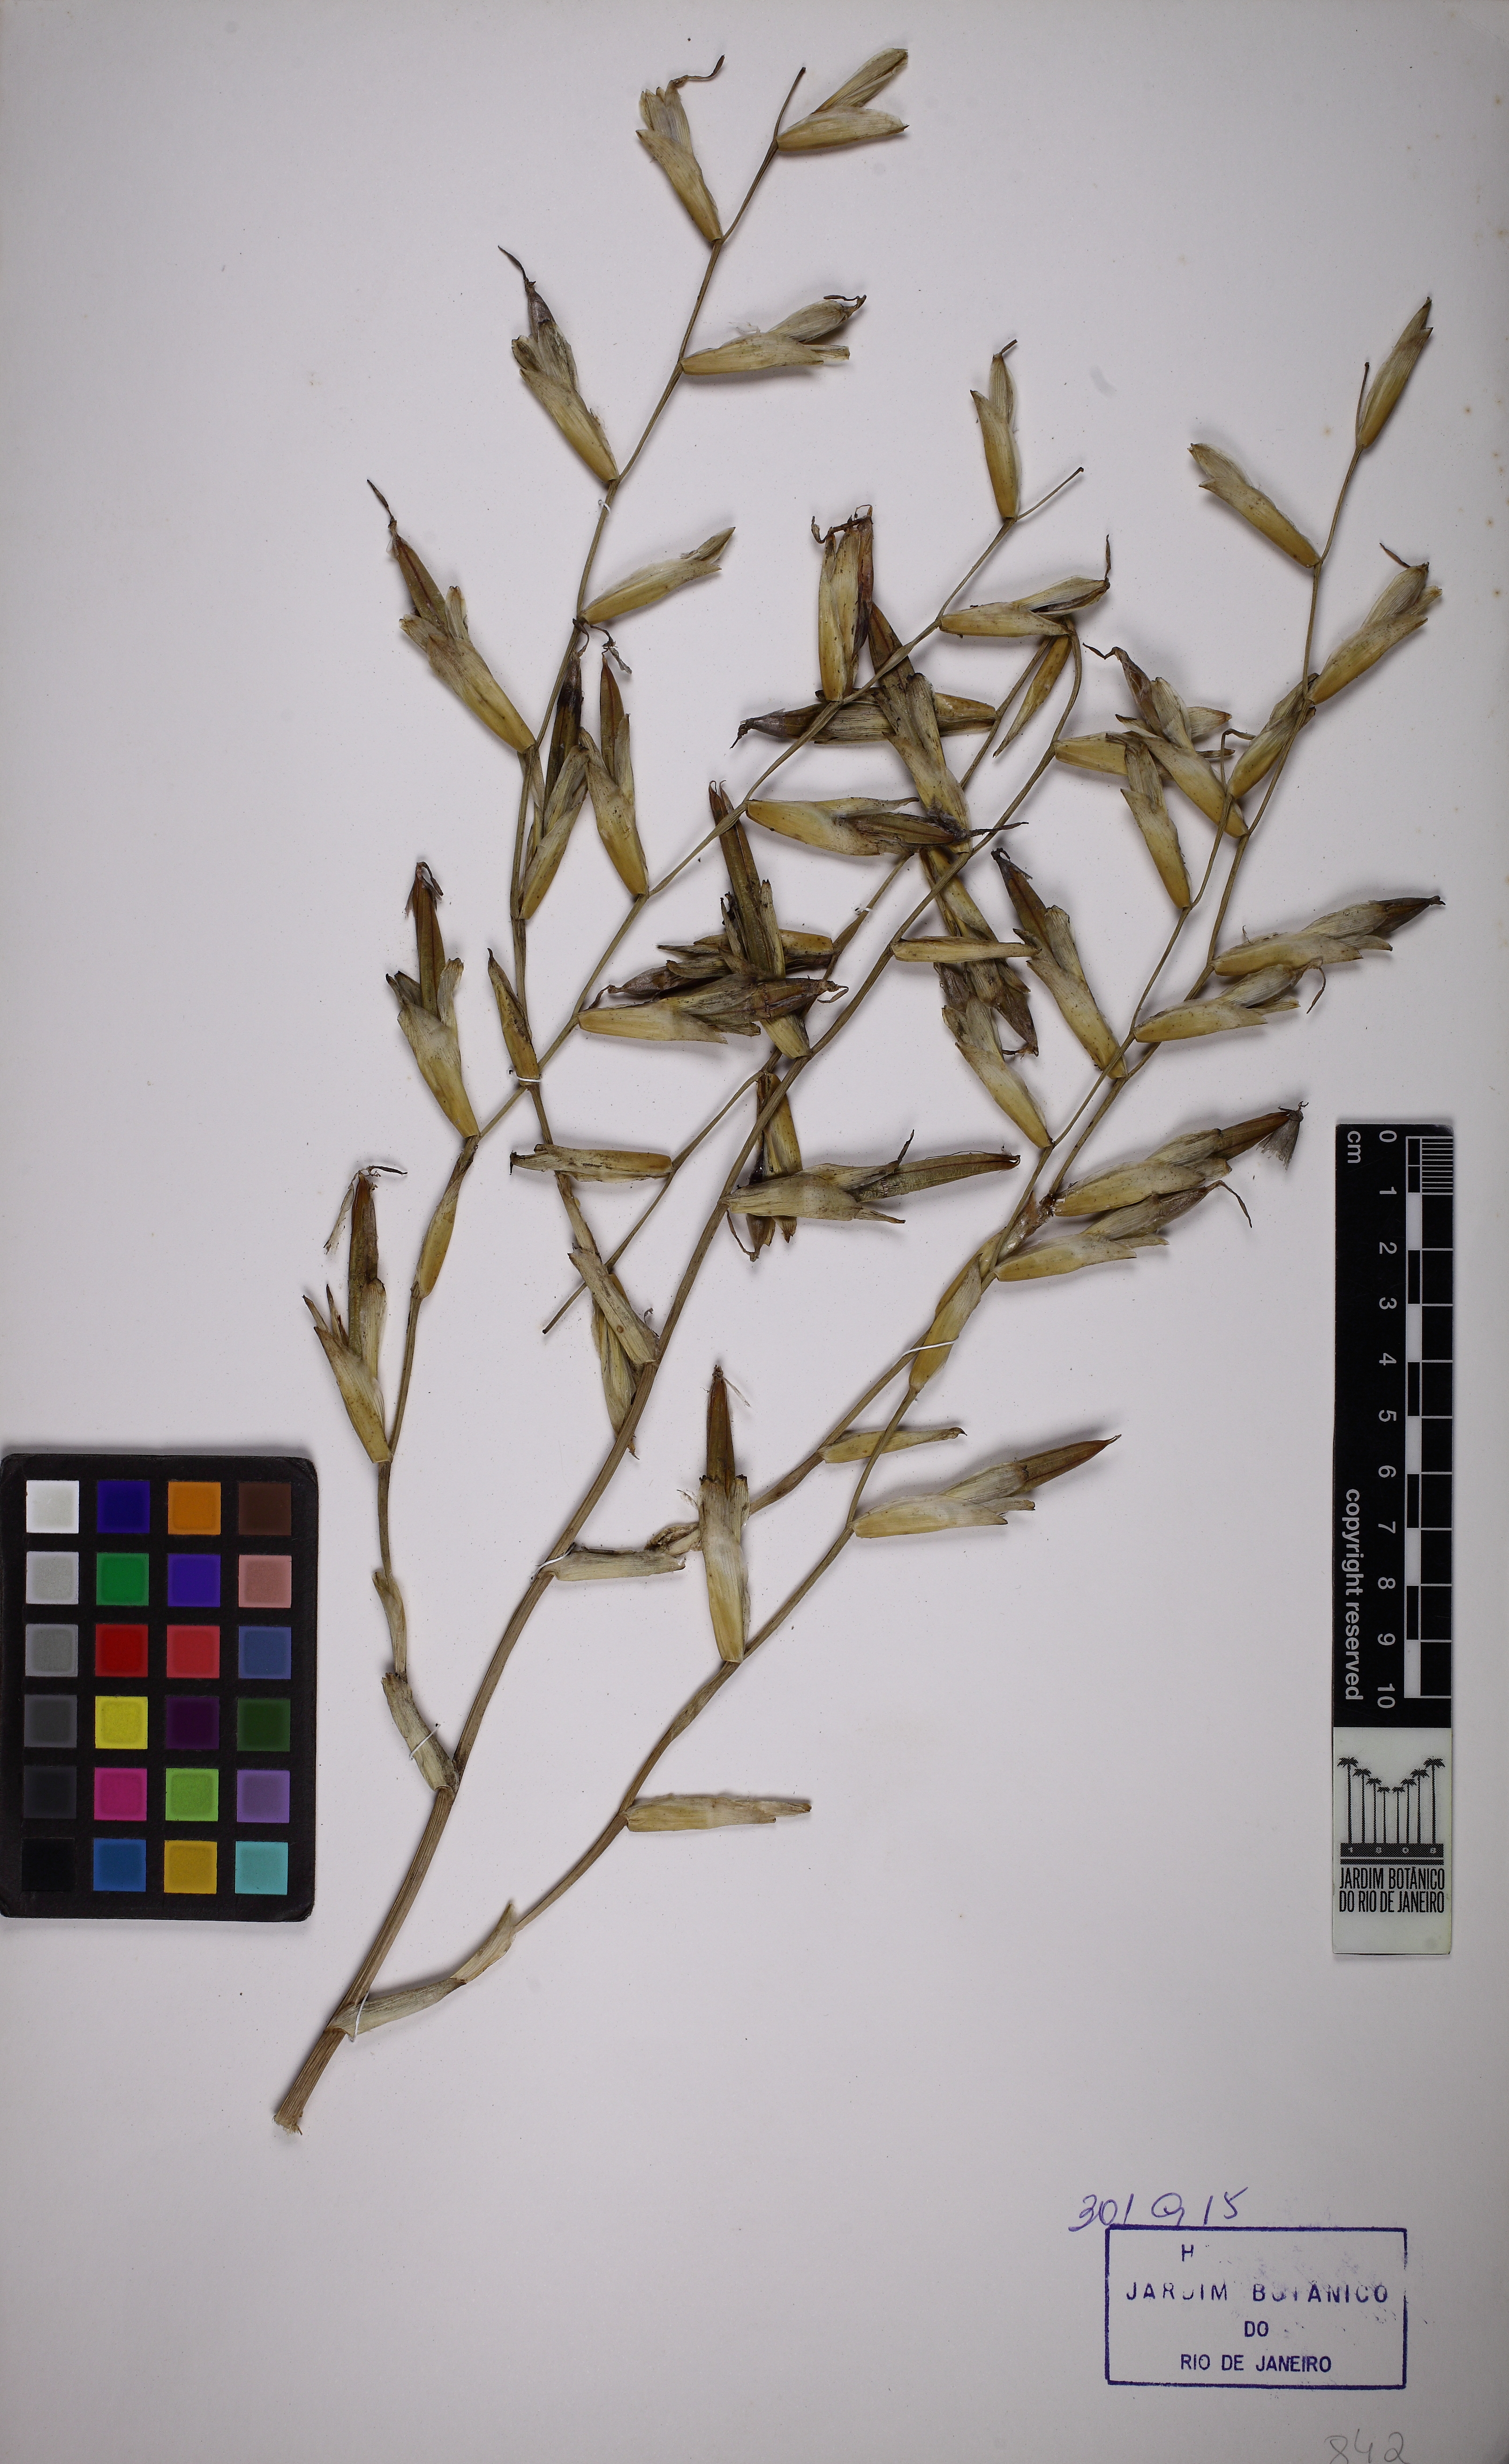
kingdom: Plantae
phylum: Tracheophyta
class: Liliopsida
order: Poales
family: Bromeliaceae
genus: Vriesea
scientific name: Vriesea procera
